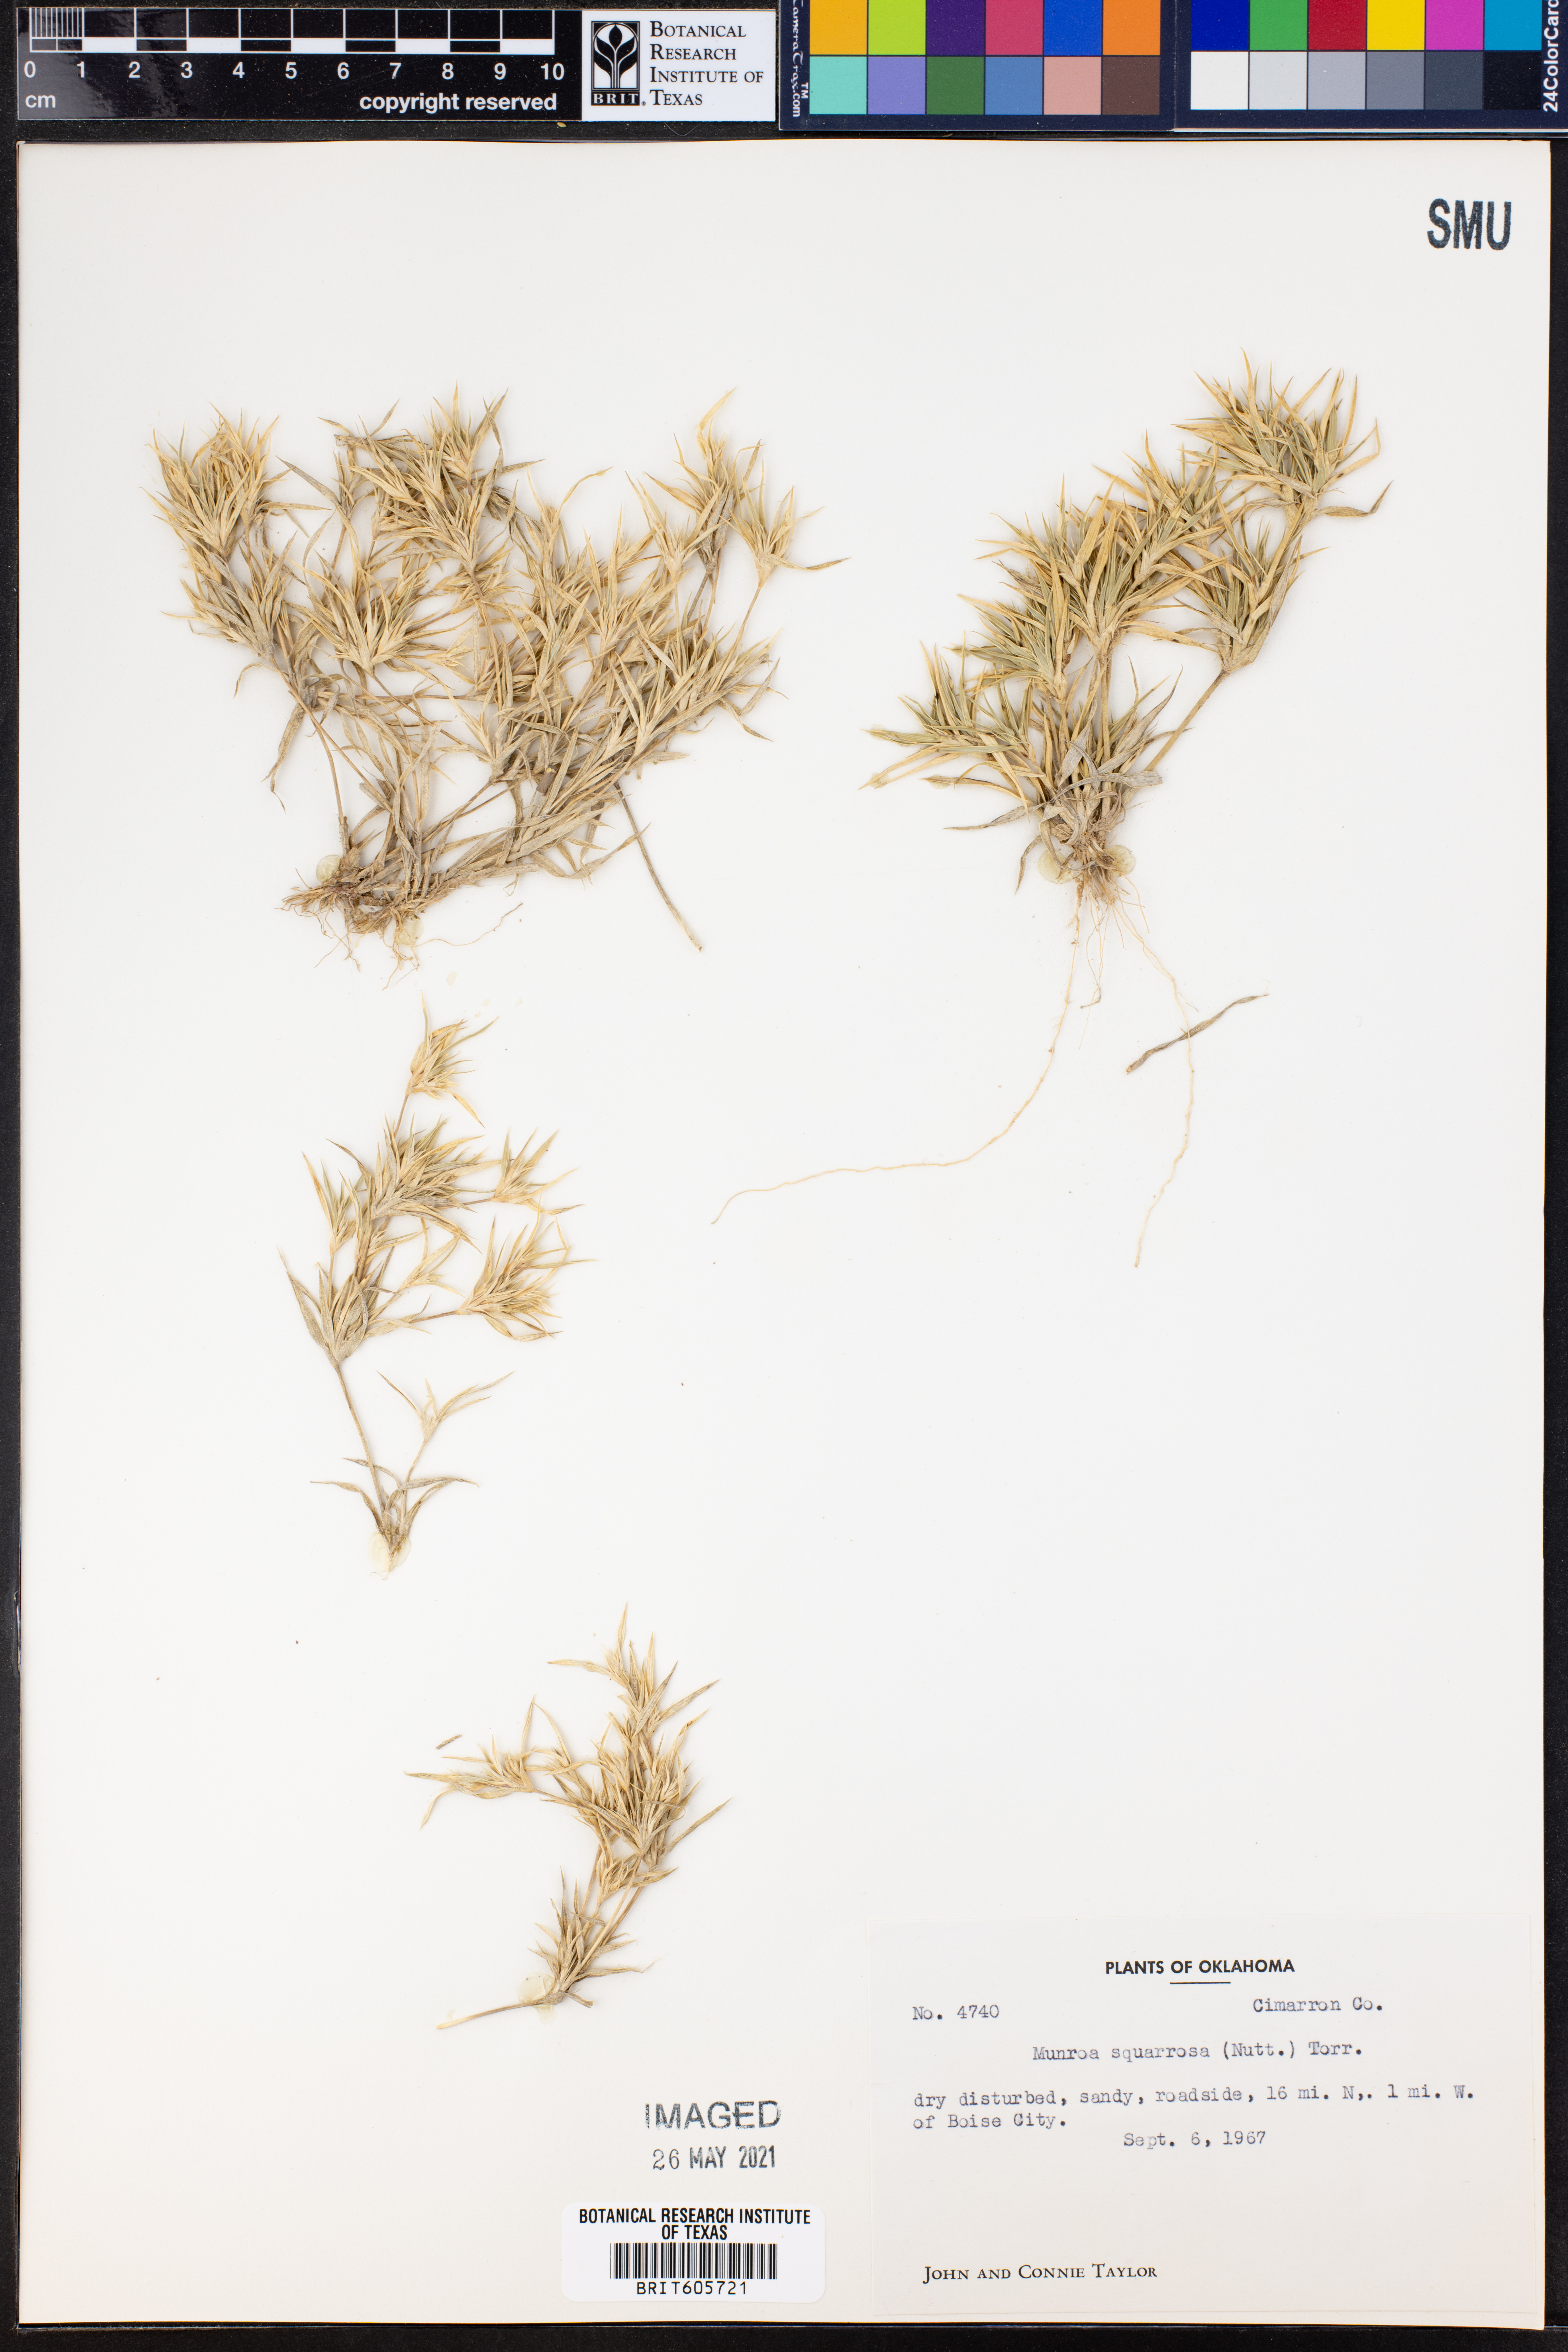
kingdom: Plantae
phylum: Tracheophyta
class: Liliopsida
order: Poales
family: Poaceae
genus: Munroa
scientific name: Munroa squarrosa
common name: False buffalo grass
